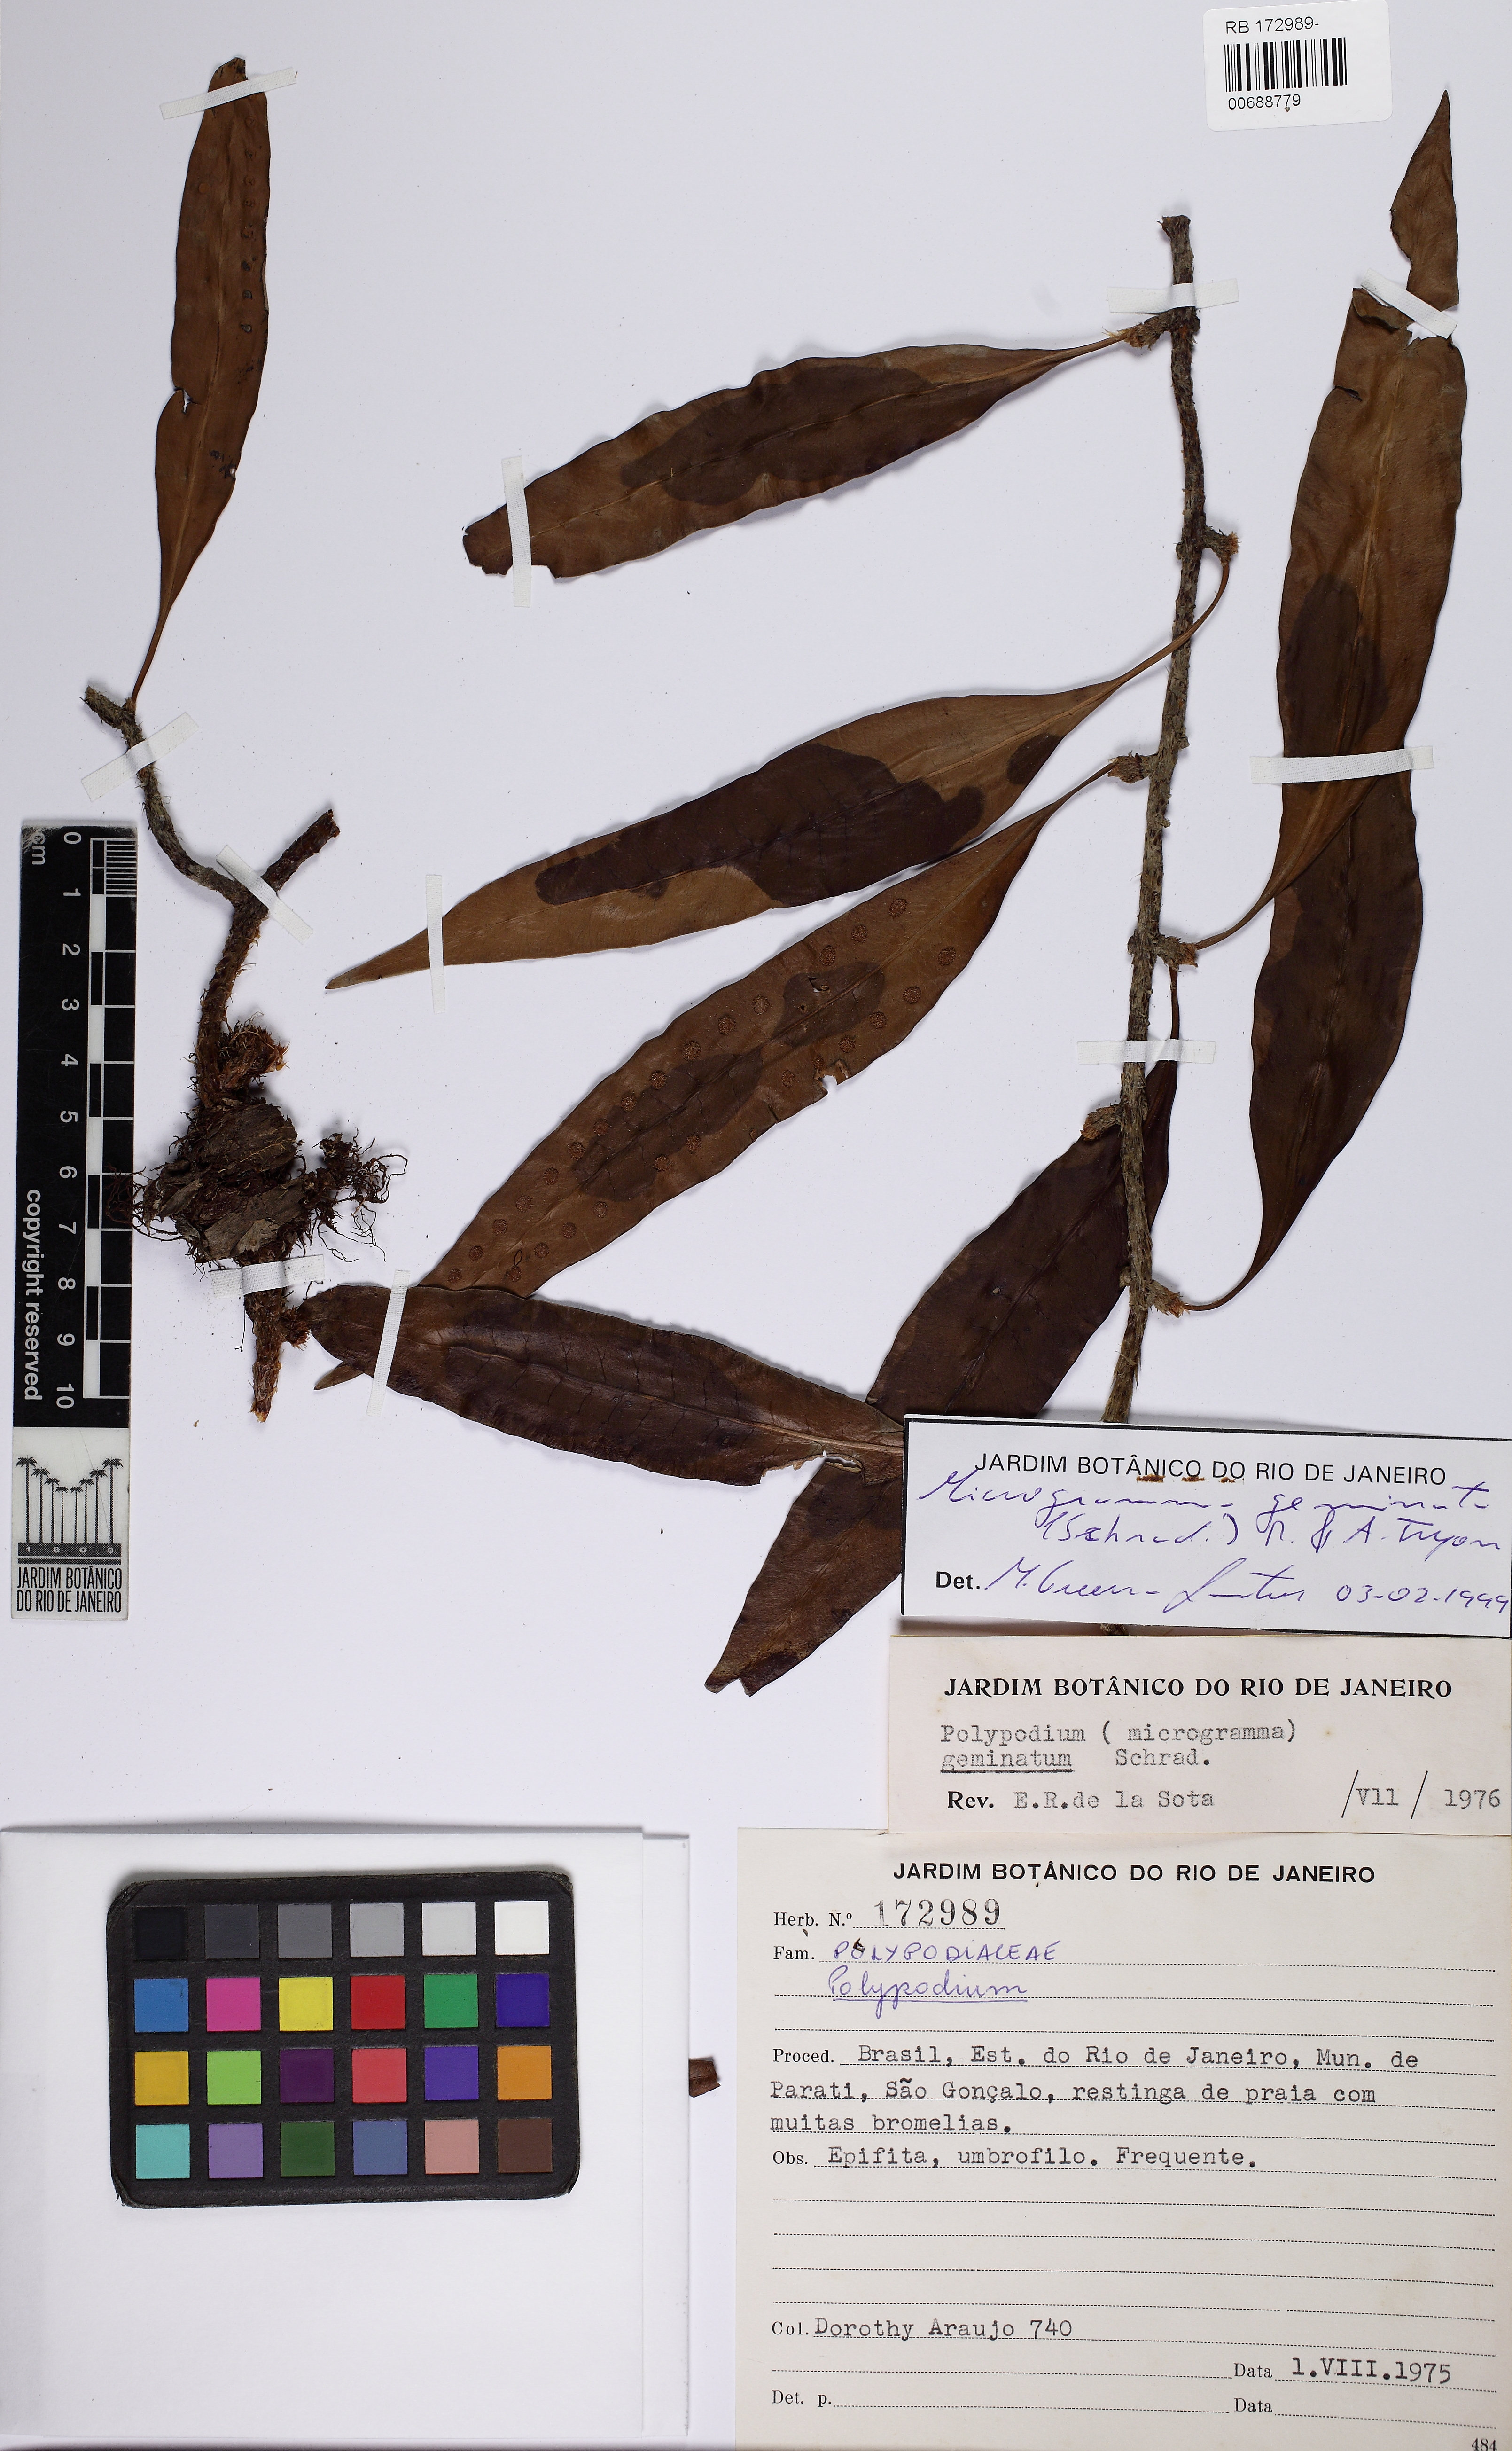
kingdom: Plantae
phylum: Tracheophyta
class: Polypodiopsida
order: Polypodiales
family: Polypodiaceae
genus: Microgramma
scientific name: Microgramma geminata
